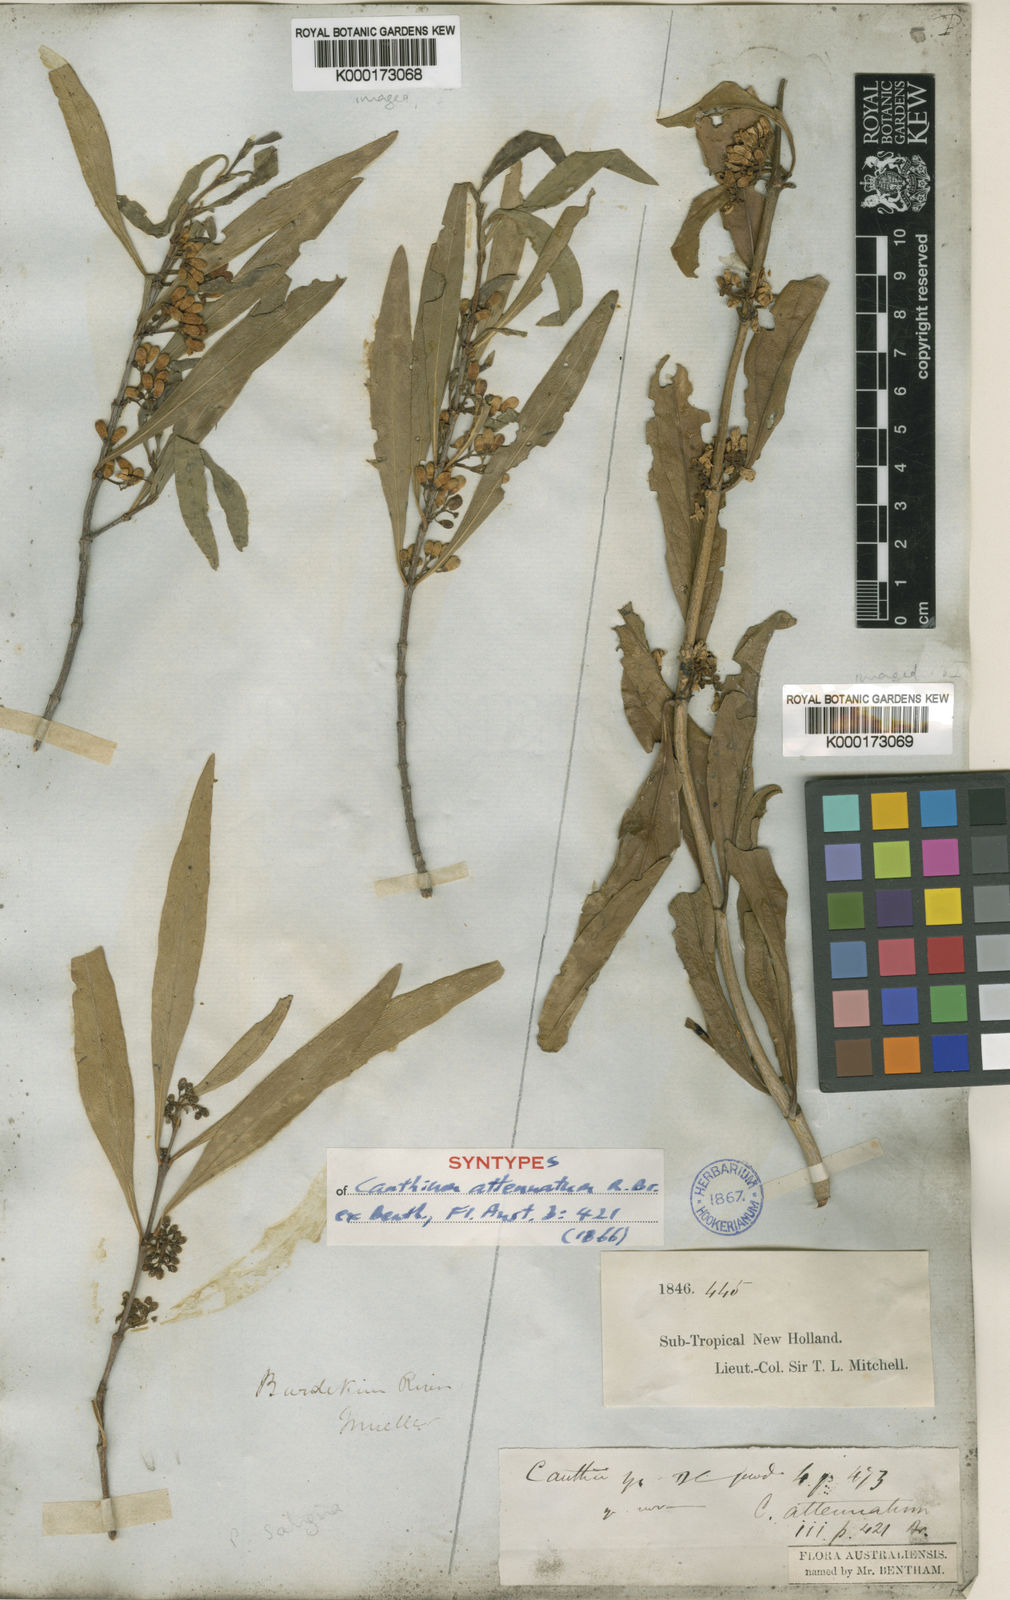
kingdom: Plantae
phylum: Tracheophyta
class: Magnoliopsida
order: Gentianales
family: Rubiaceae
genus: Psydrax
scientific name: Psydrax salignus
